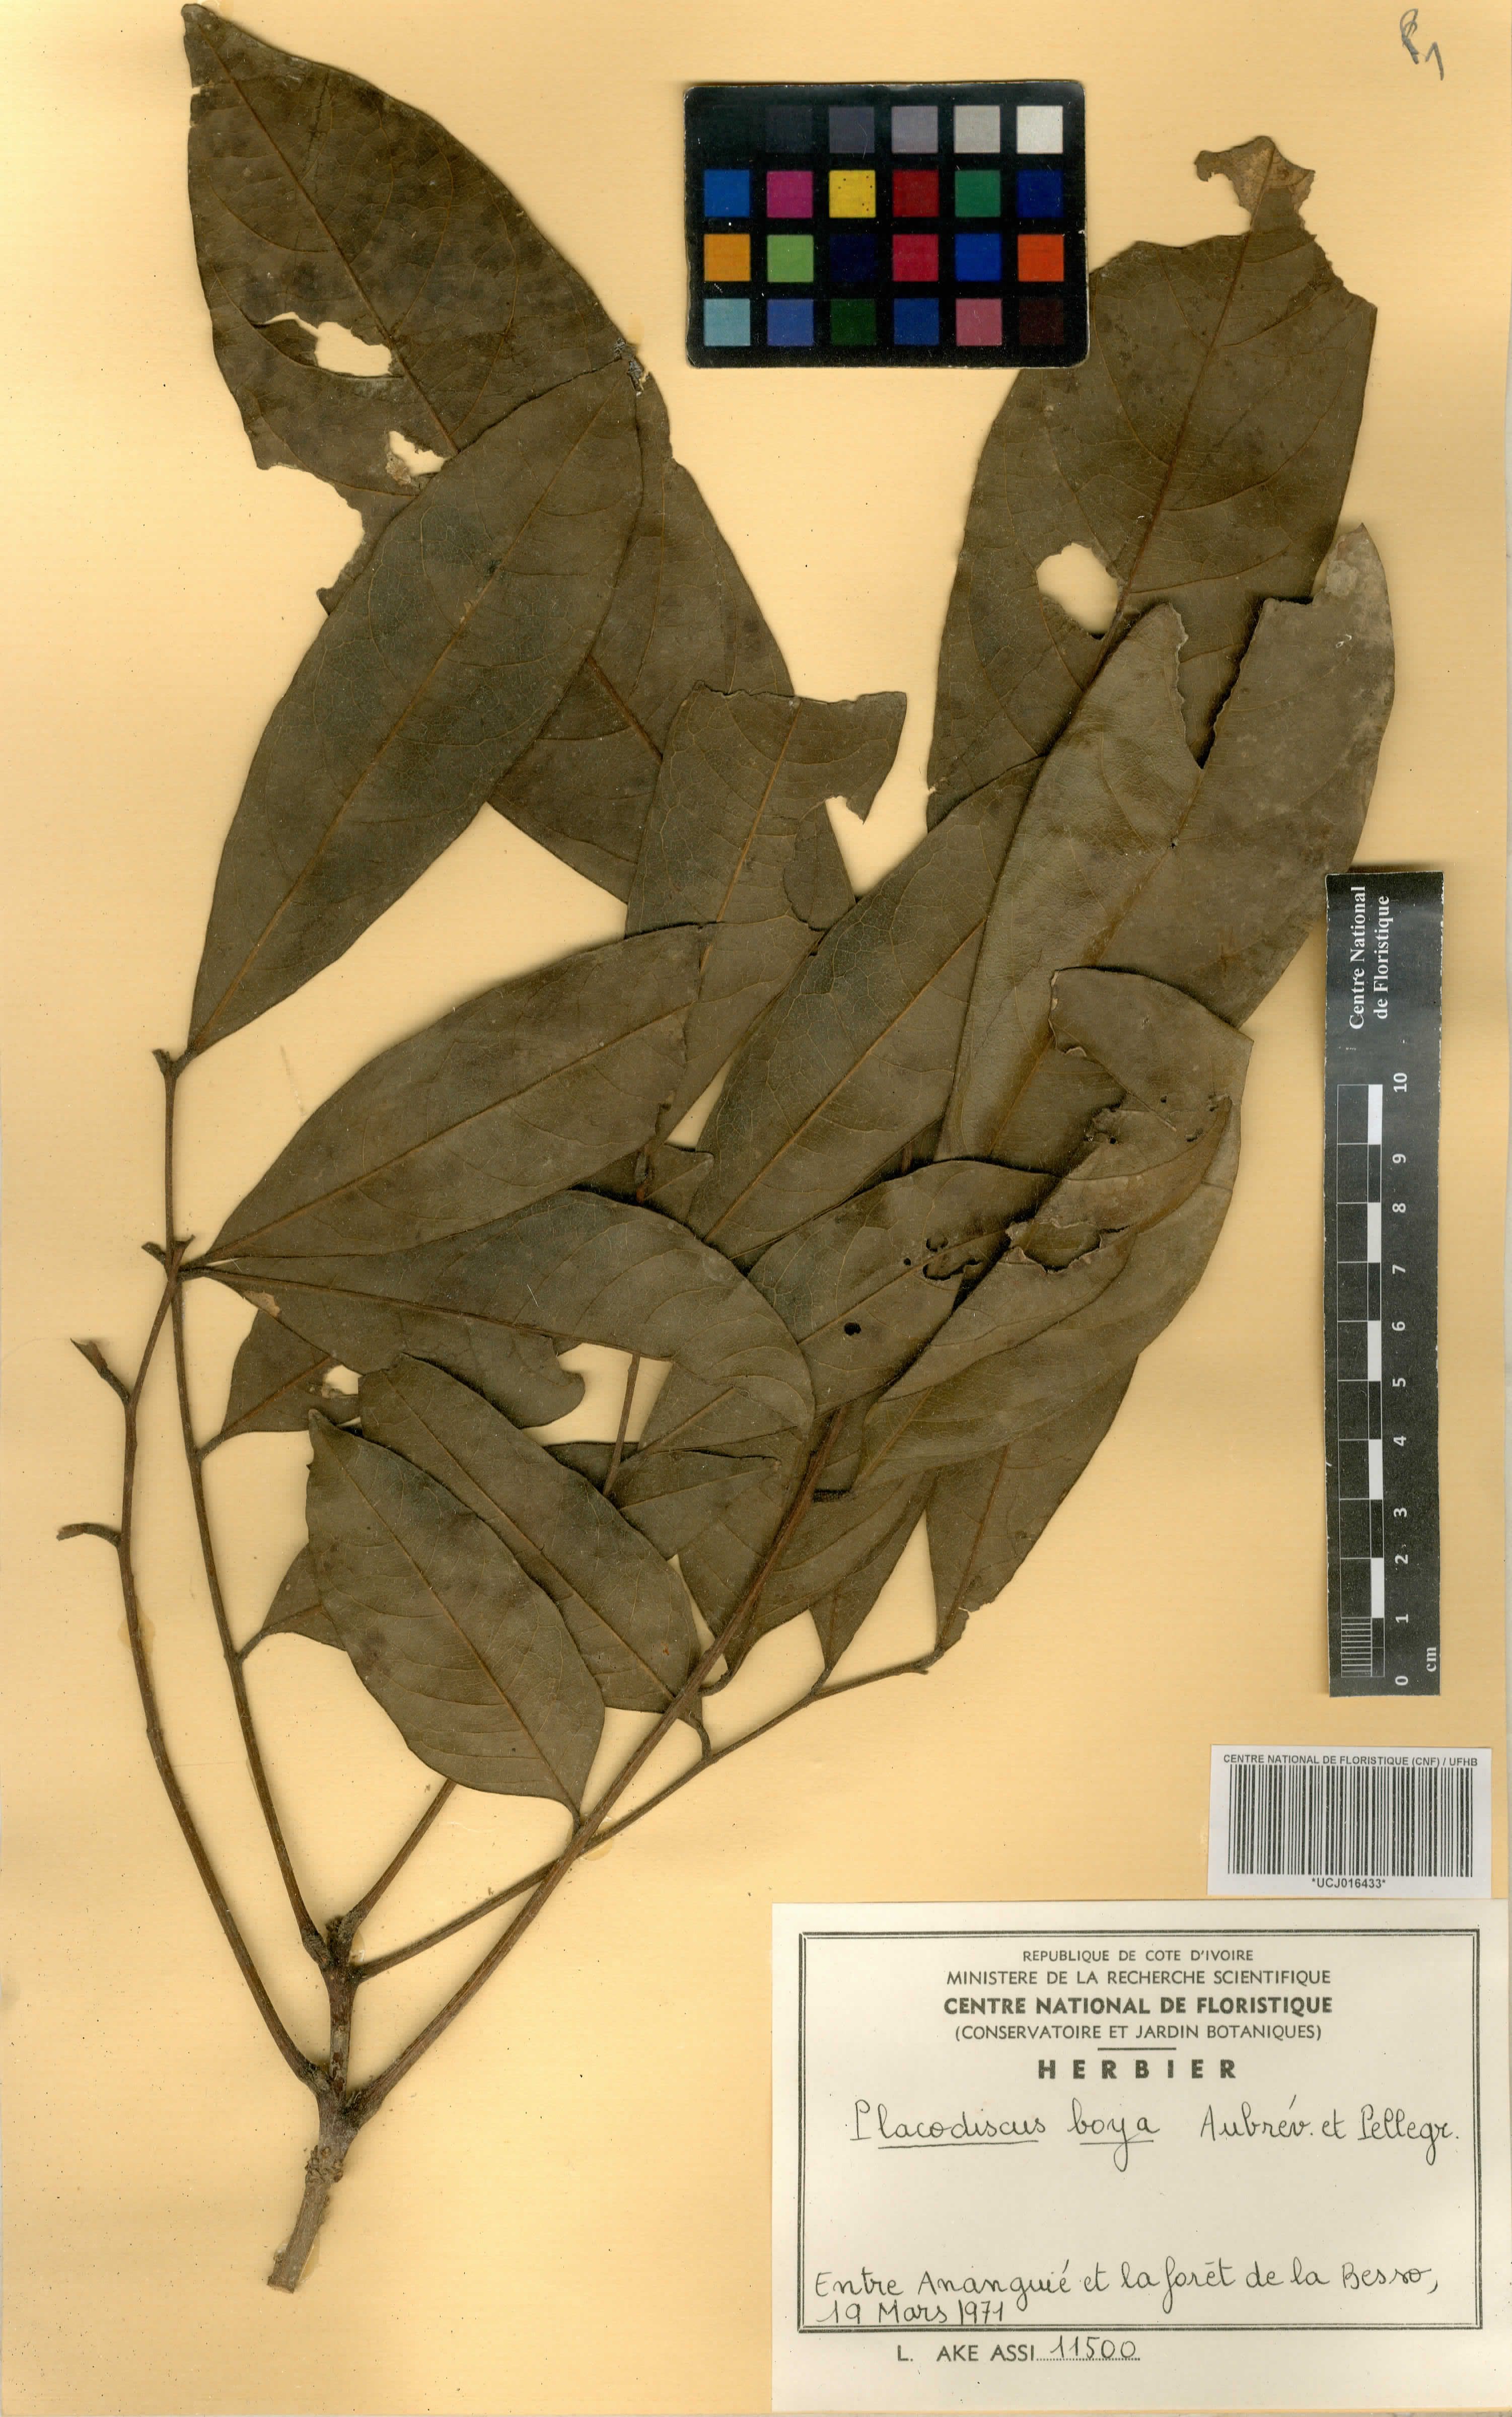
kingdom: Plantae
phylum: Tracheophyta
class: Magnoliopsida
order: Sapindales
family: Sapindaceae
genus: Placodiscus
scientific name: Placodiscus boya
